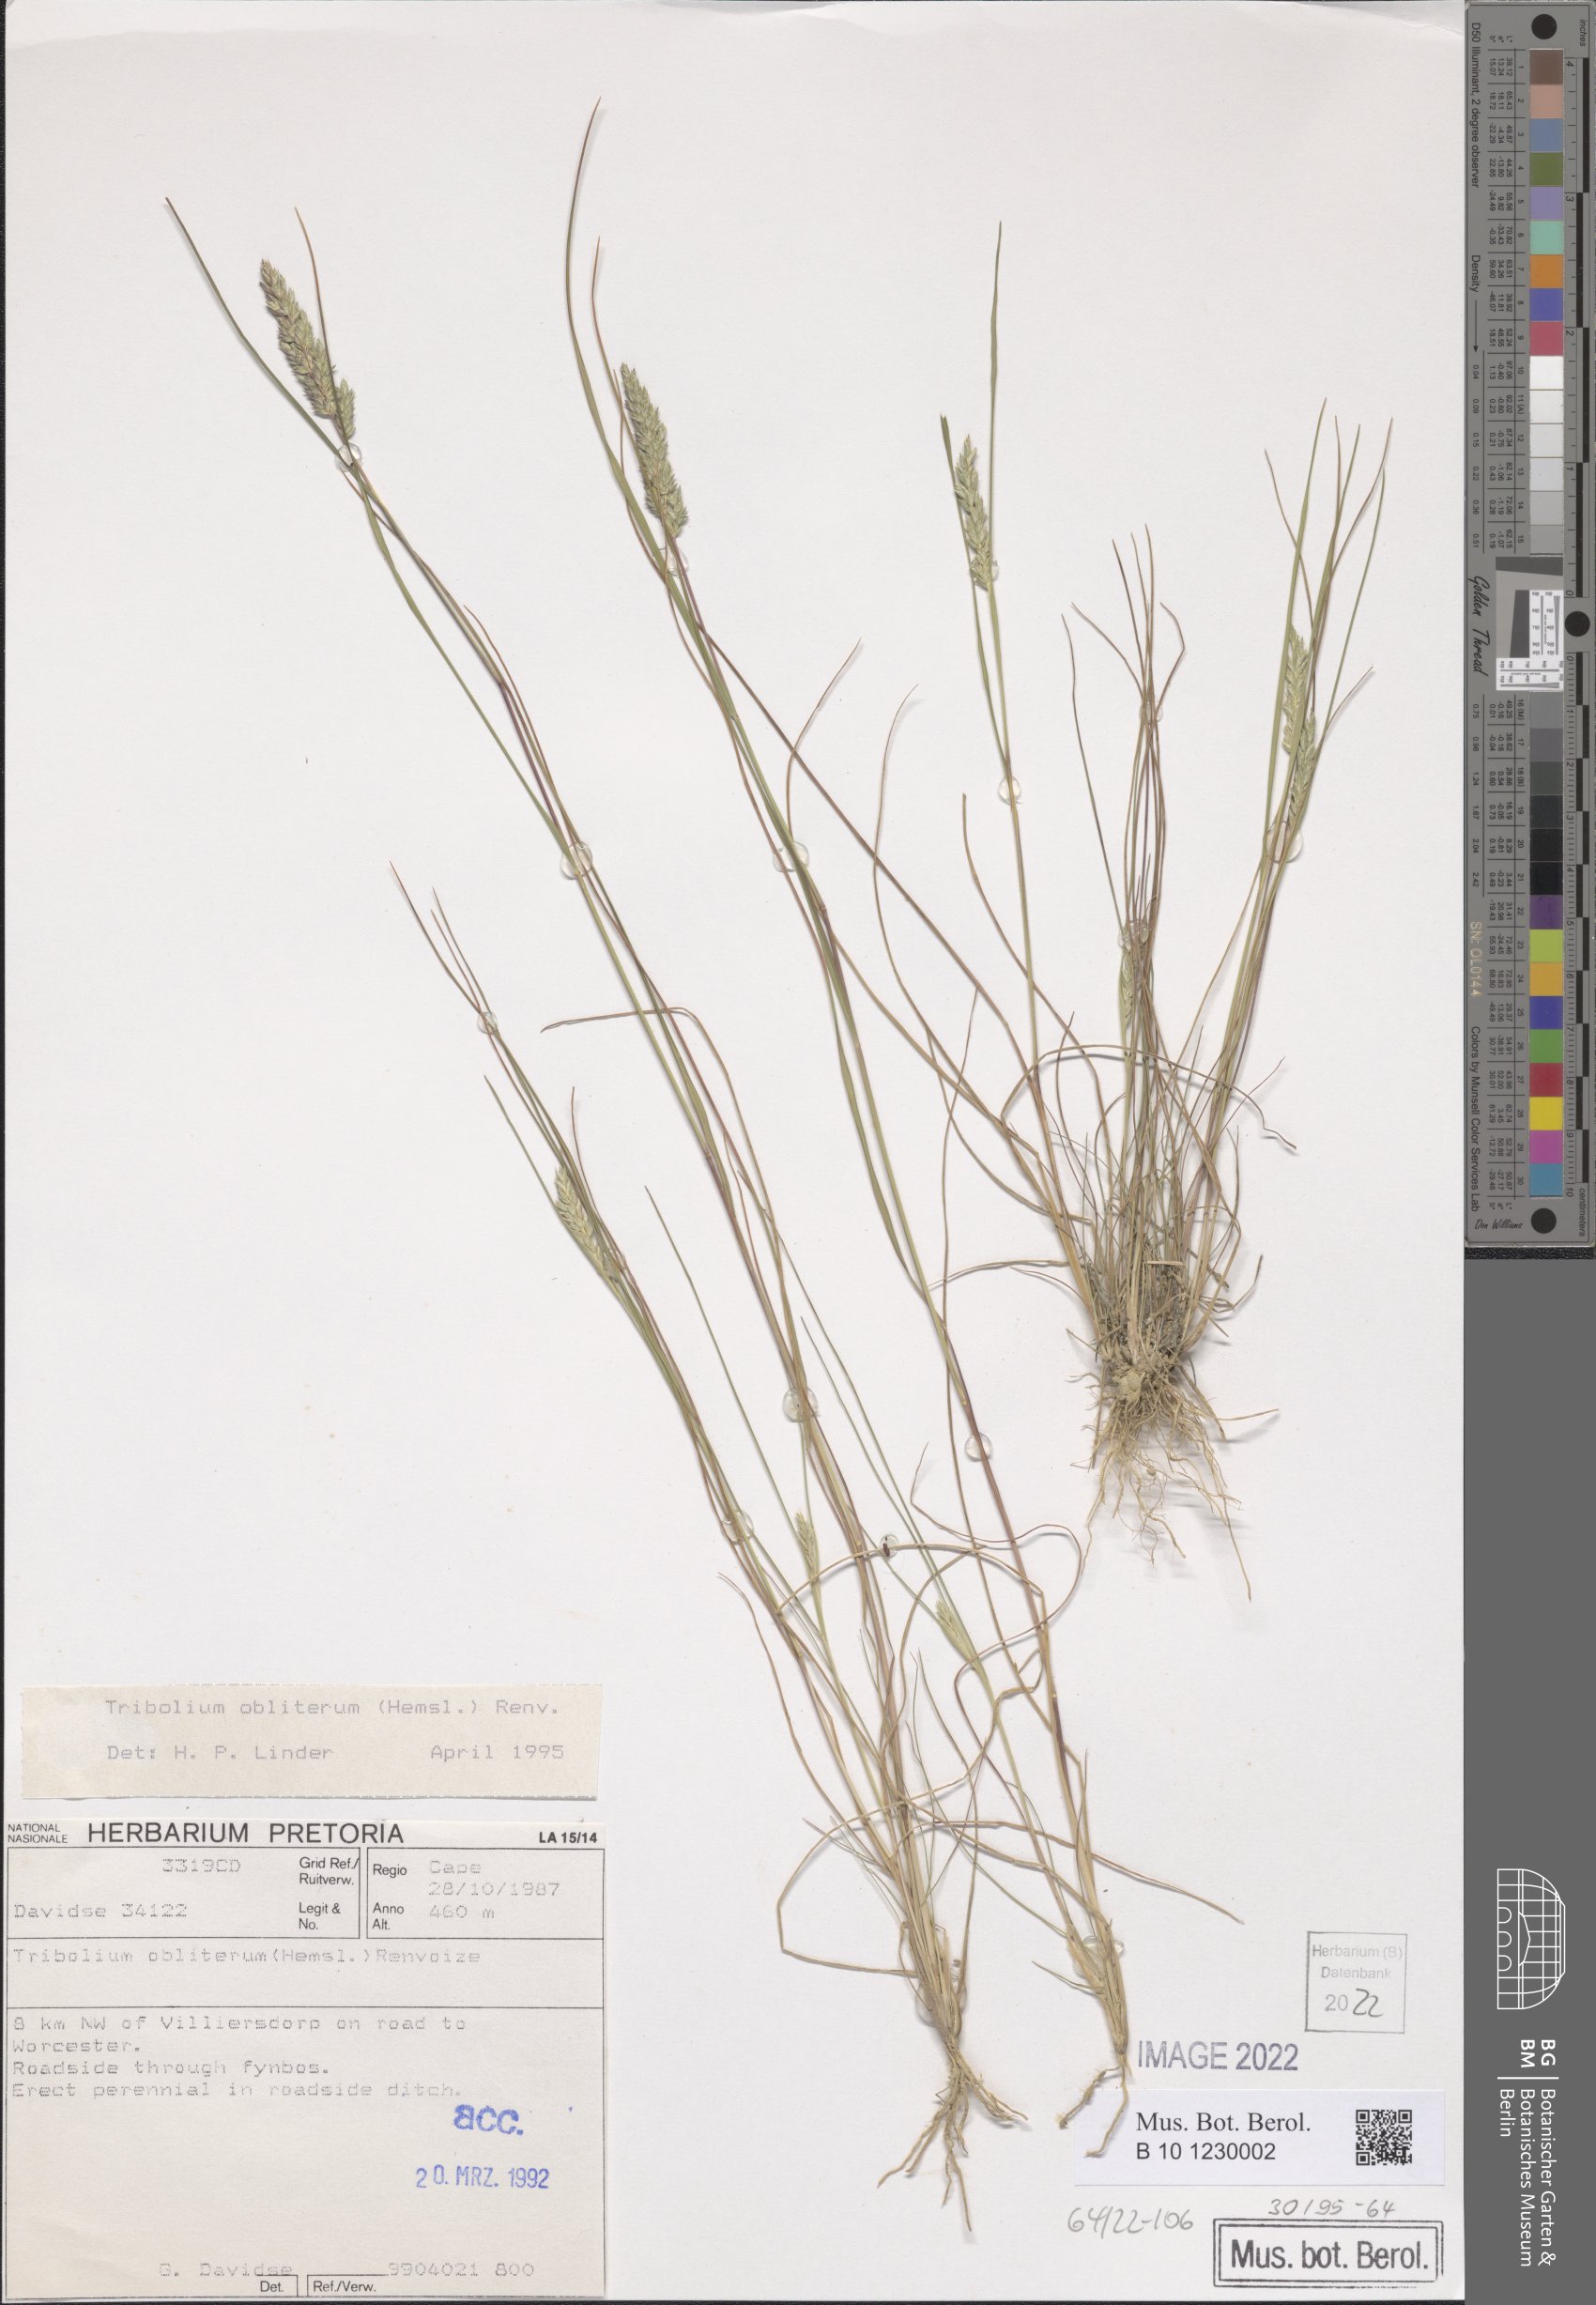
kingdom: Plantae
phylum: Tracheophyta
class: Liliopsida
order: Poales
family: Poaceae
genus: Tribolium
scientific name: Tribolium obliterum
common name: Capetown grass
